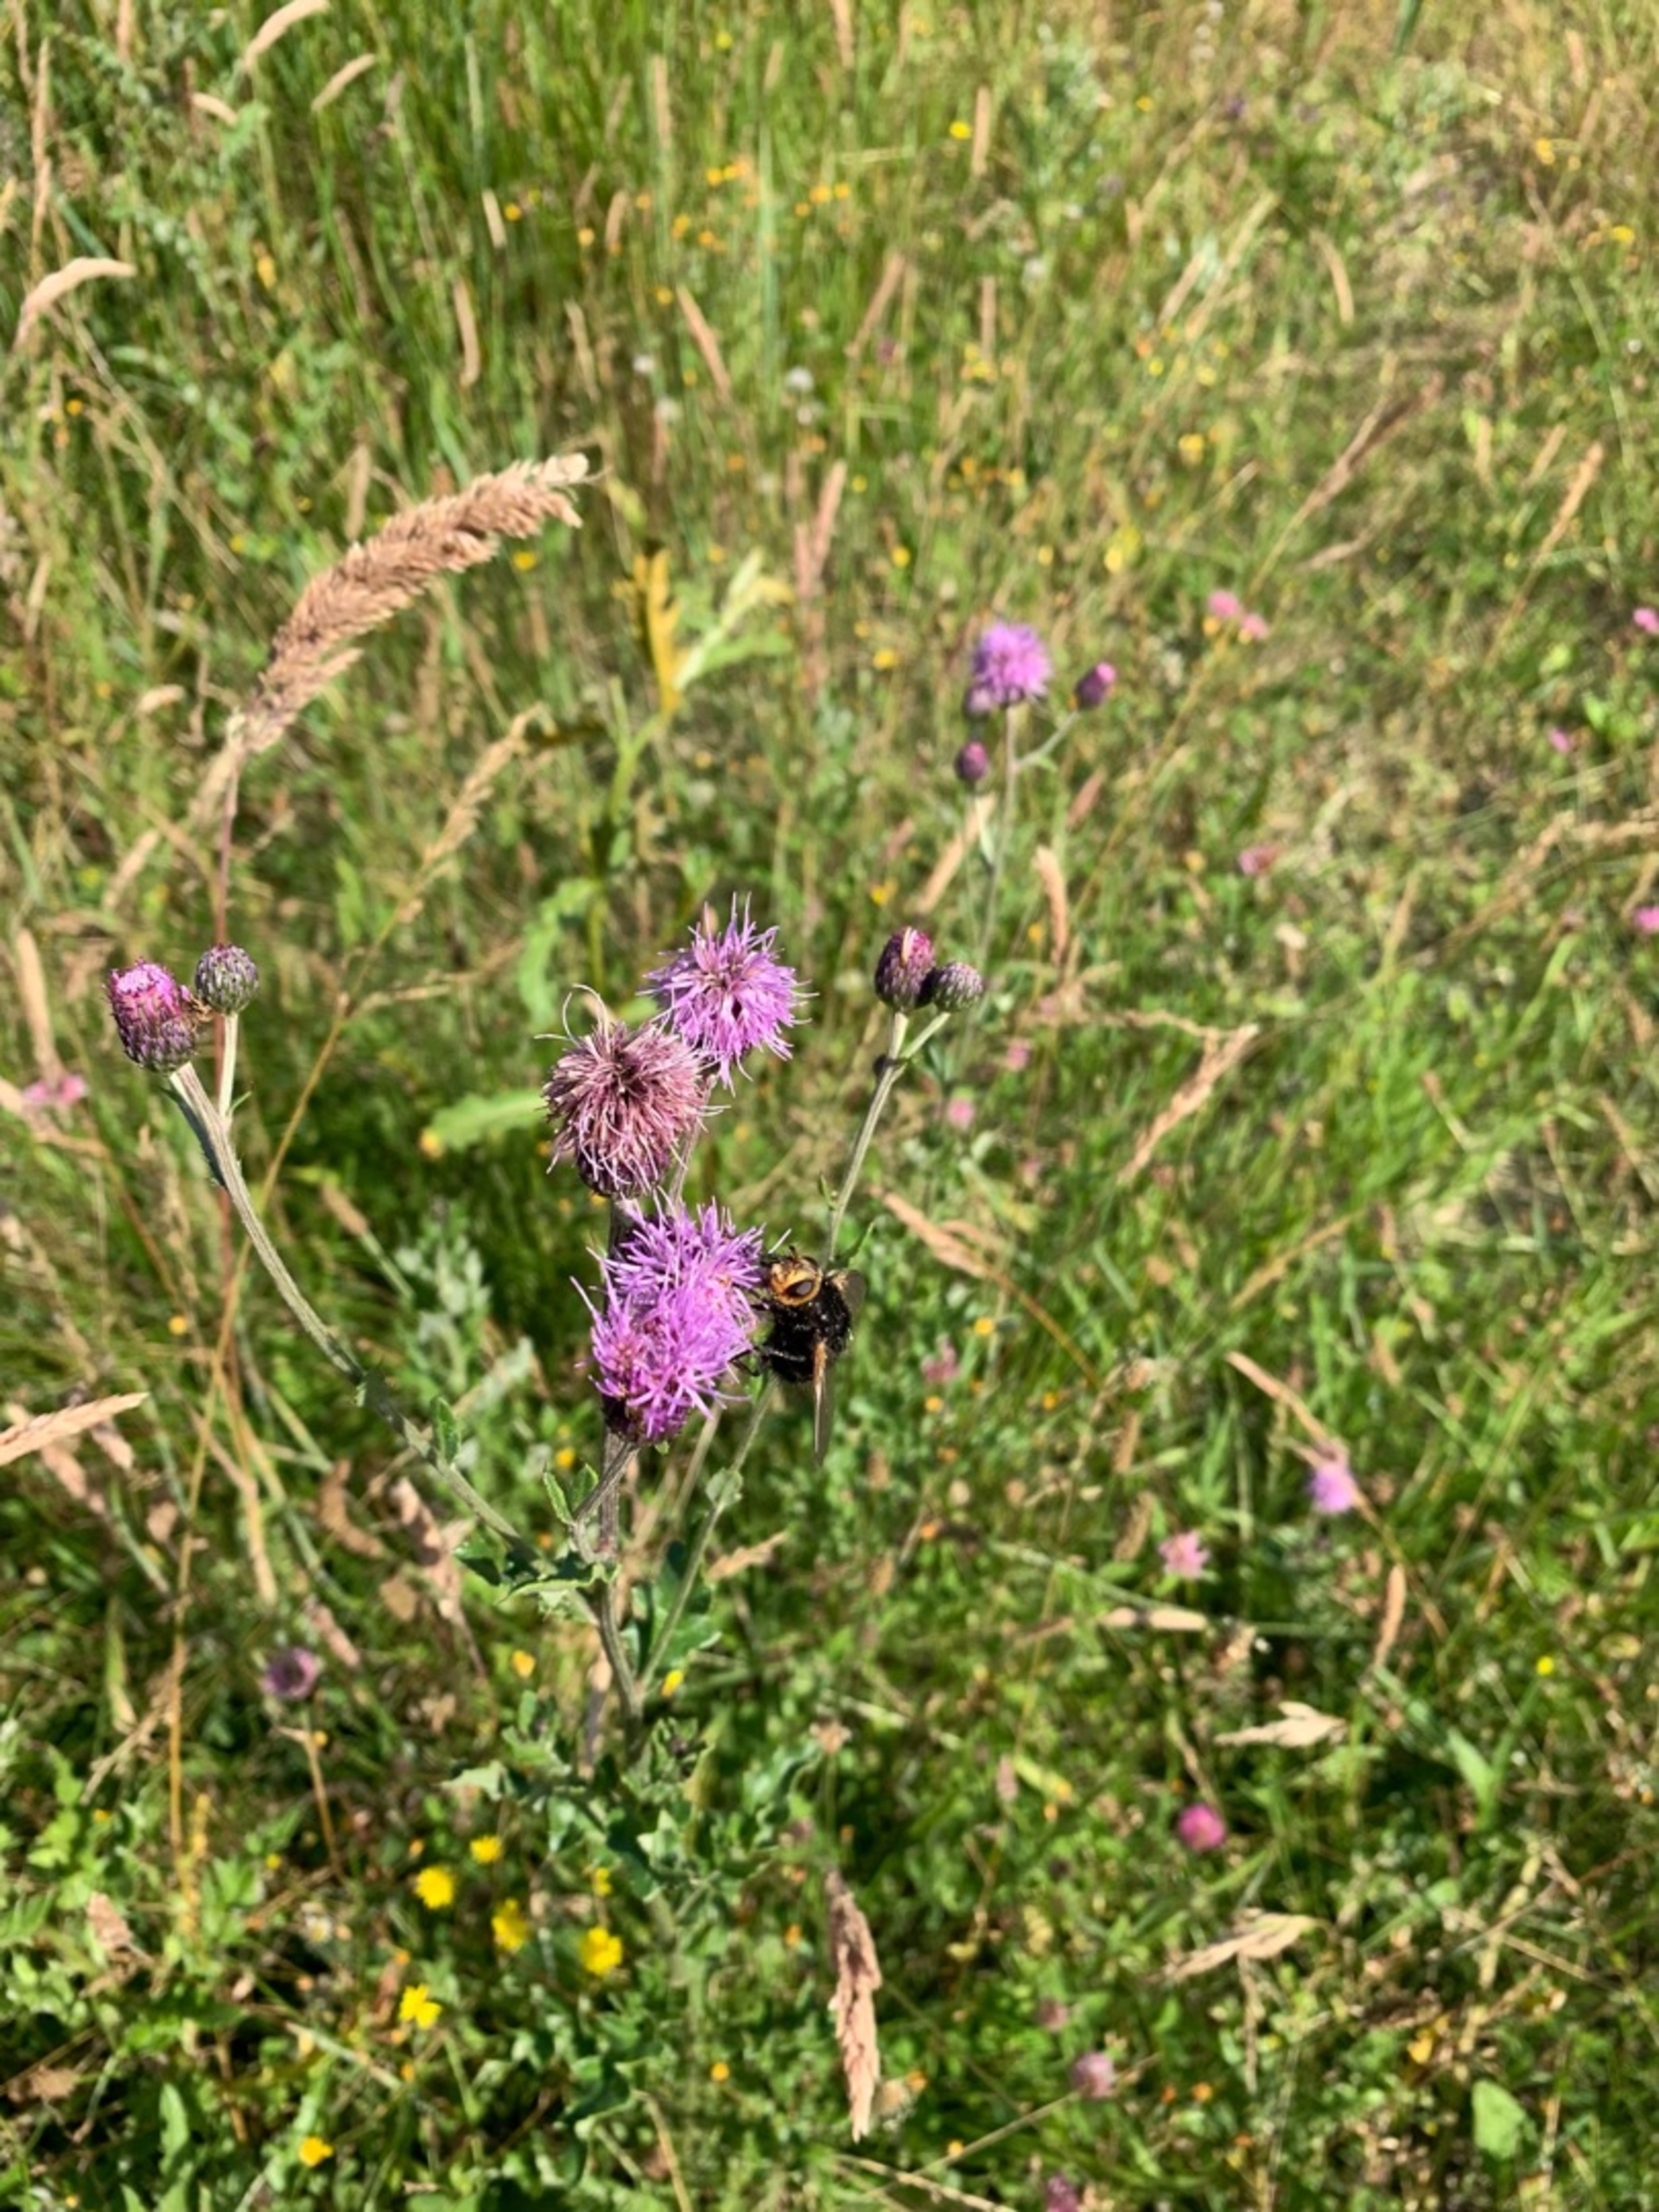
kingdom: Animalia
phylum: Arthropoda
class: Insecta
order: Diptera
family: Tachinidae
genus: Tachina
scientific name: Tachina grossa
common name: Kæmpefluen Harald
